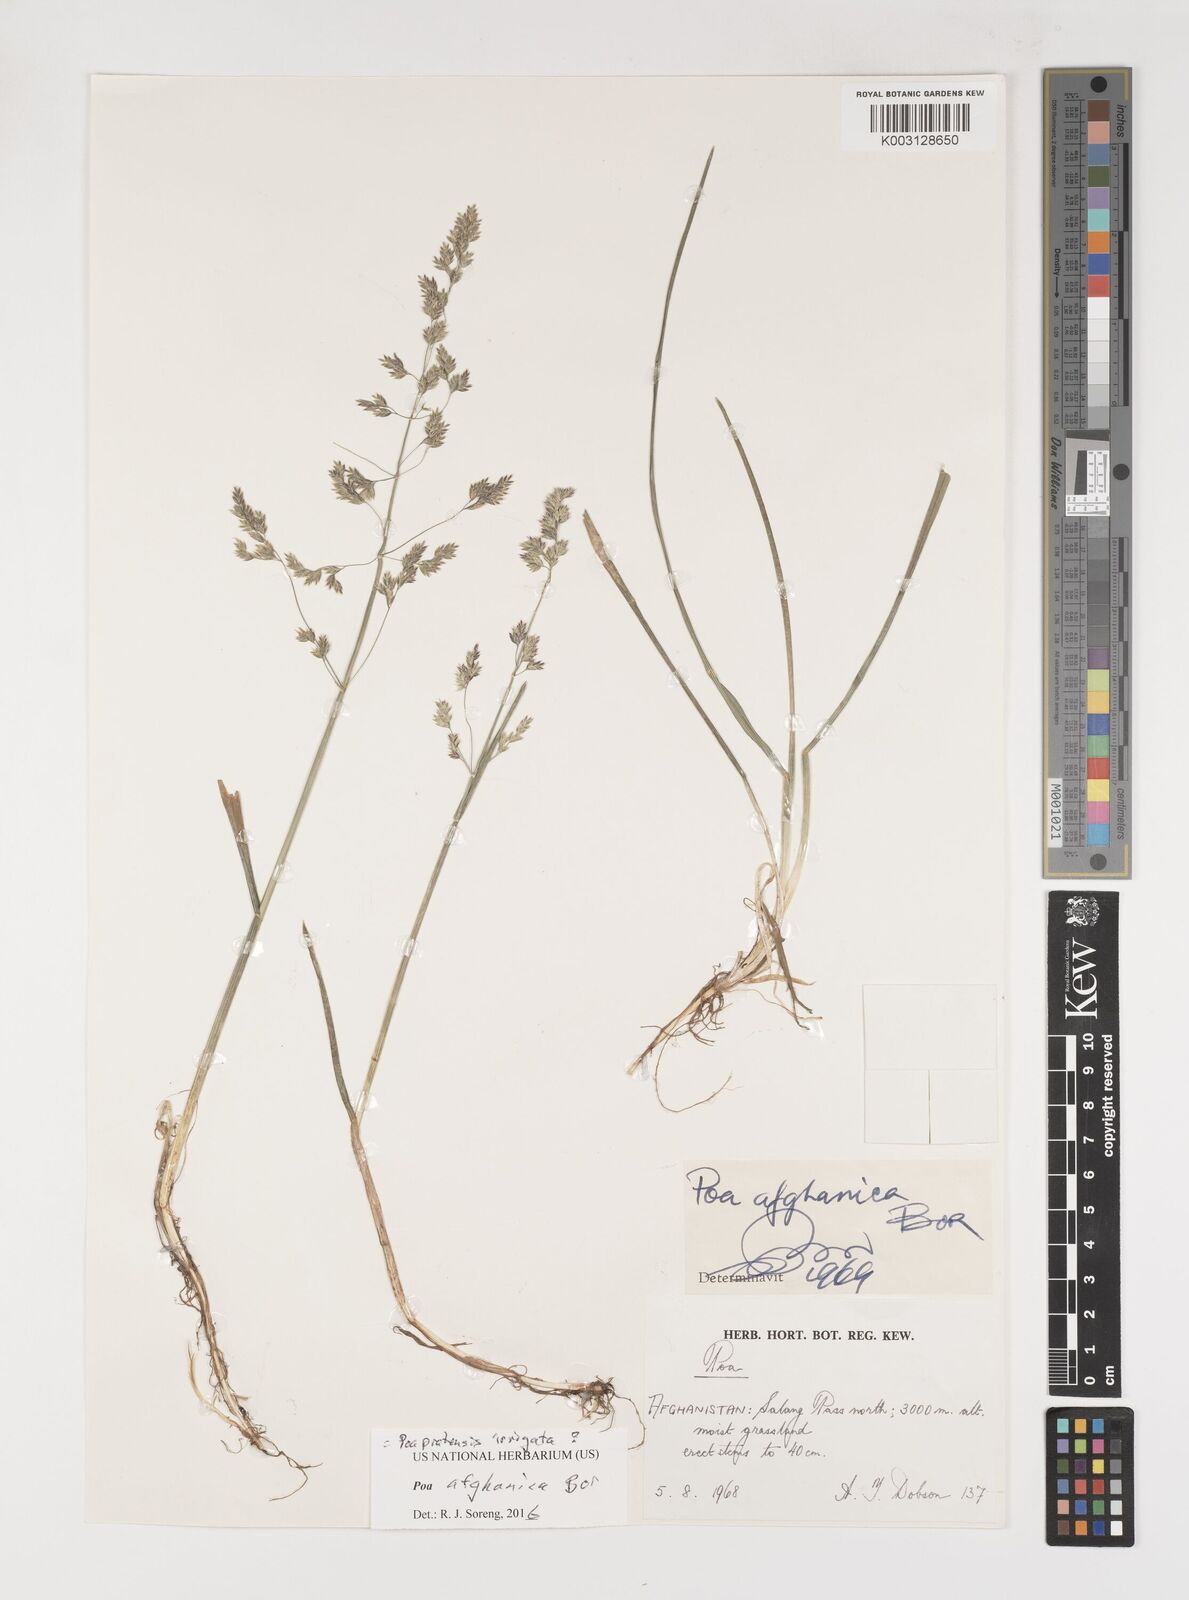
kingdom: Plantae
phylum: Tracheophyta
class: Liliopsida
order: Poales
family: Poaceae
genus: Poa
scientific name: Poa afghanica
